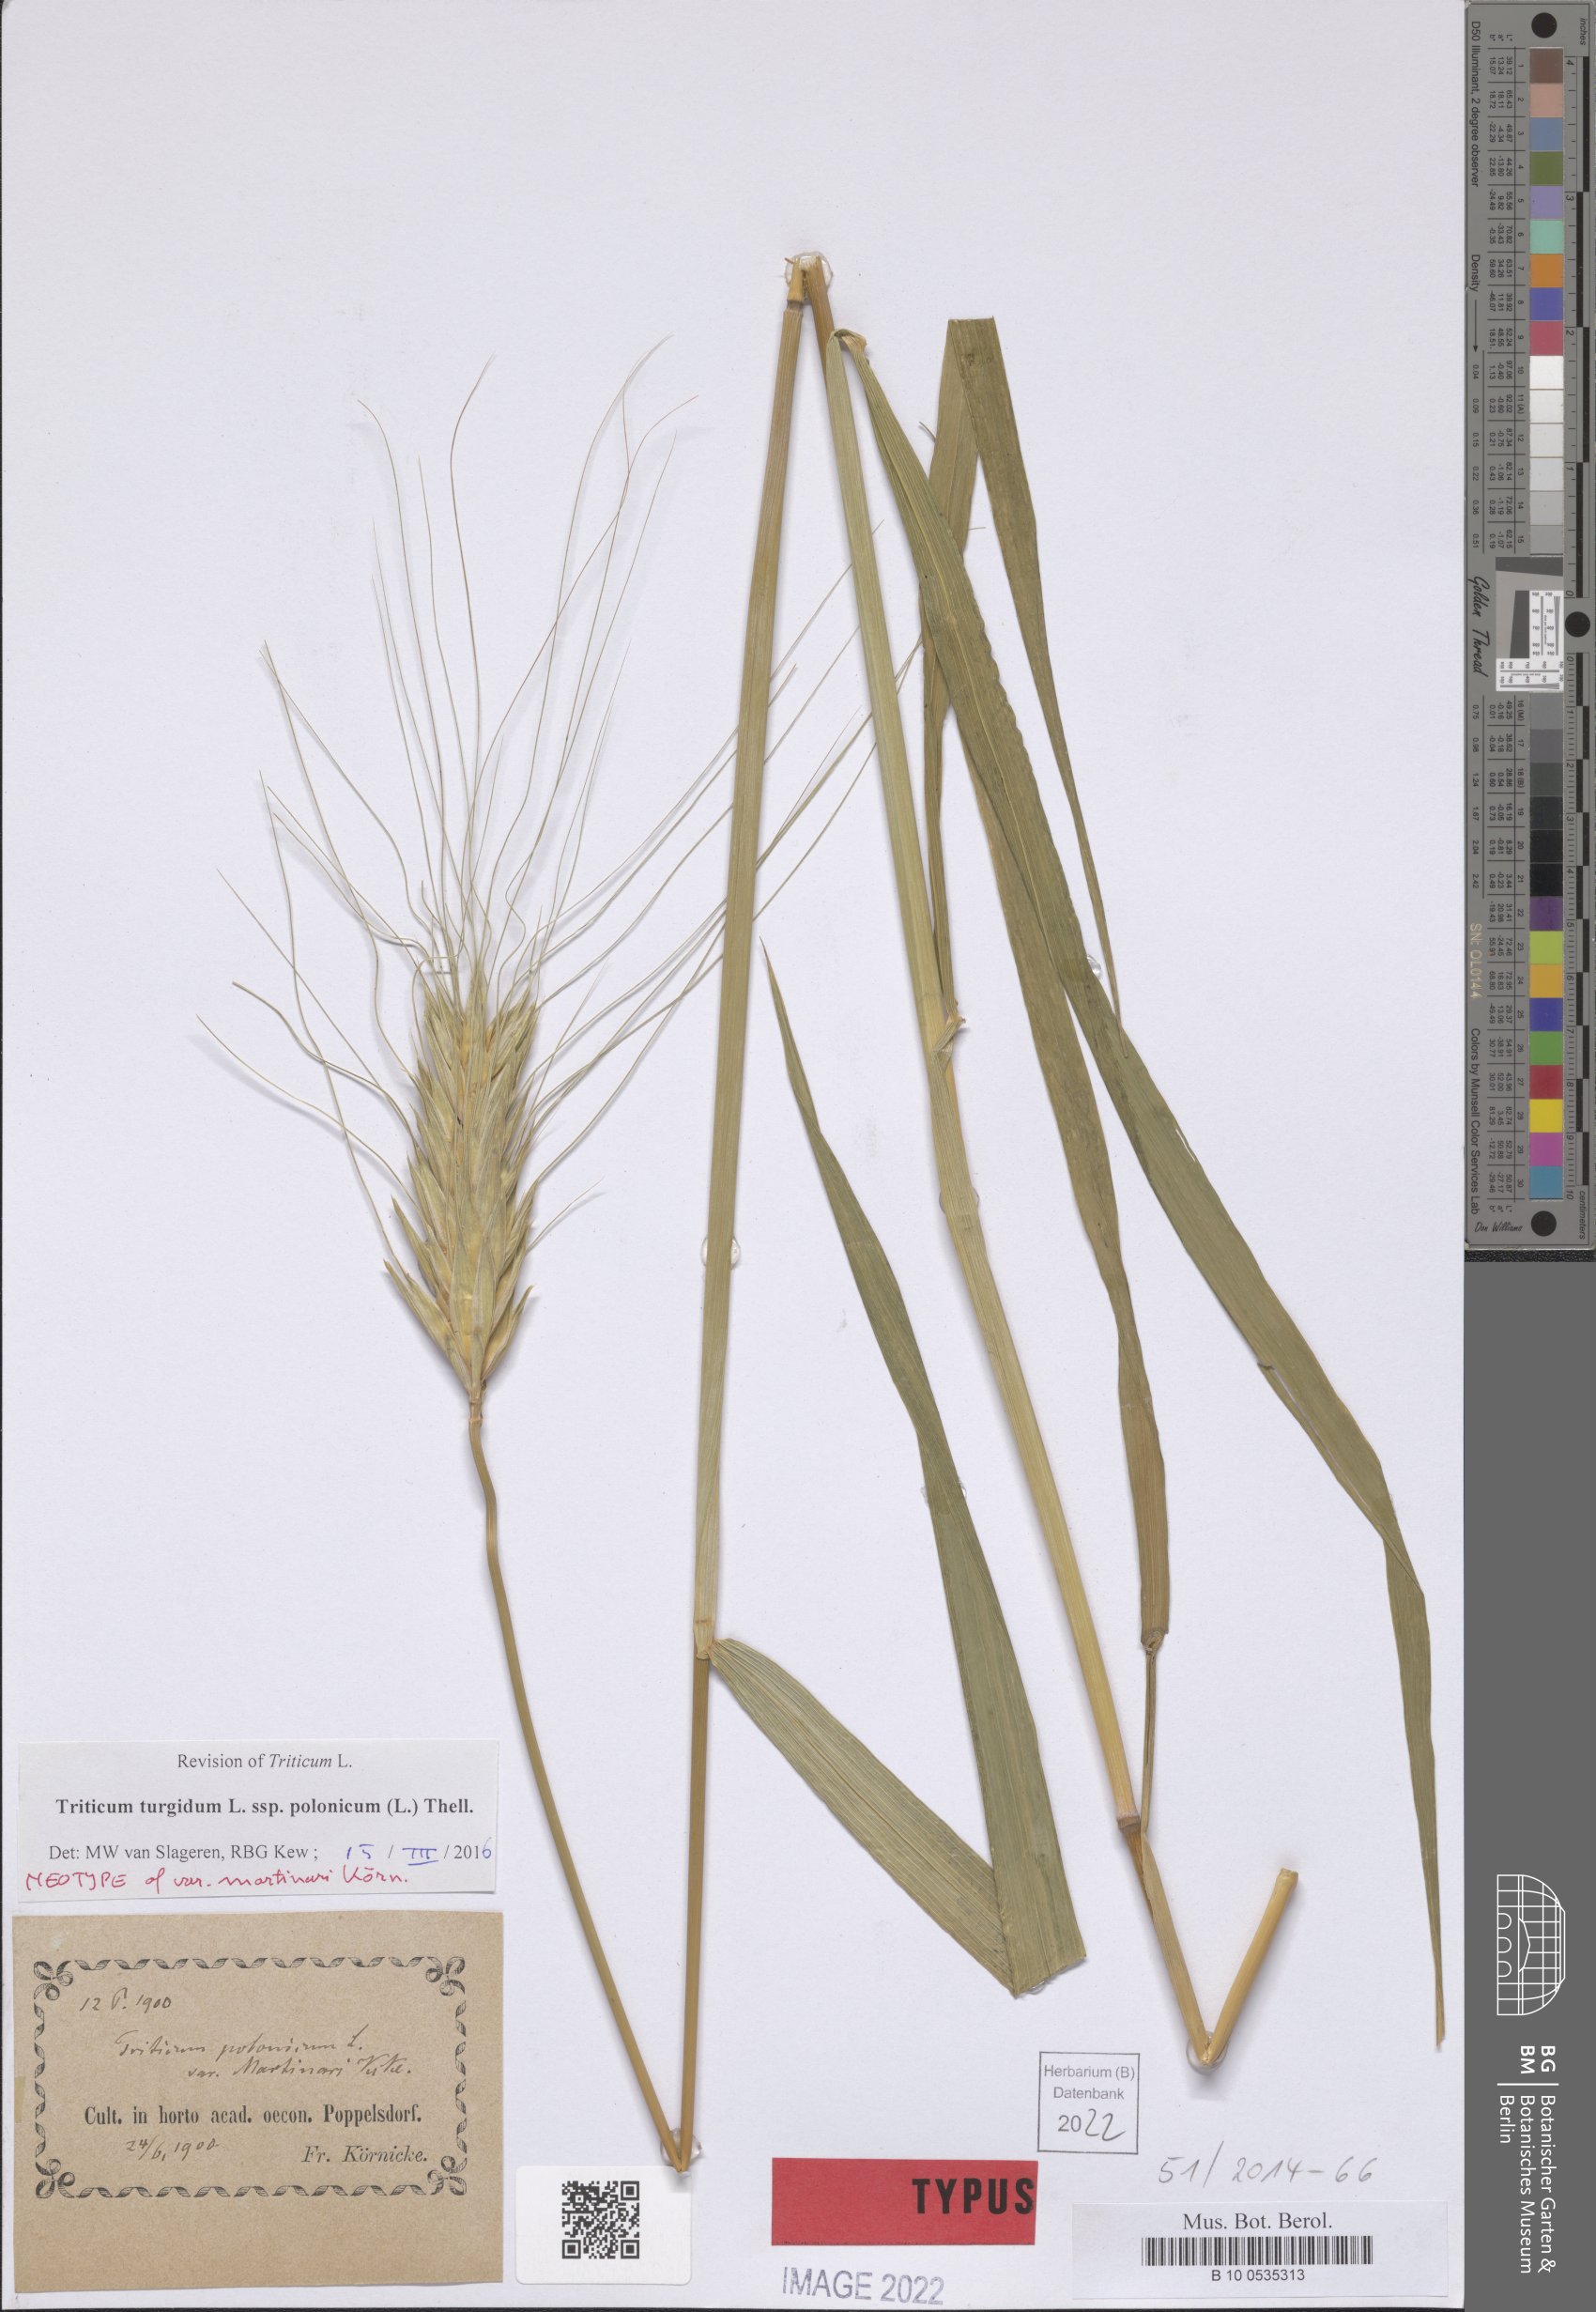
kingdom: Plantae
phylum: Tracheophyta
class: Liliopsida
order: Poales
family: Poaceae
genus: Triticum
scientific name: Triticum turgidum
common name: Rivet wheat
